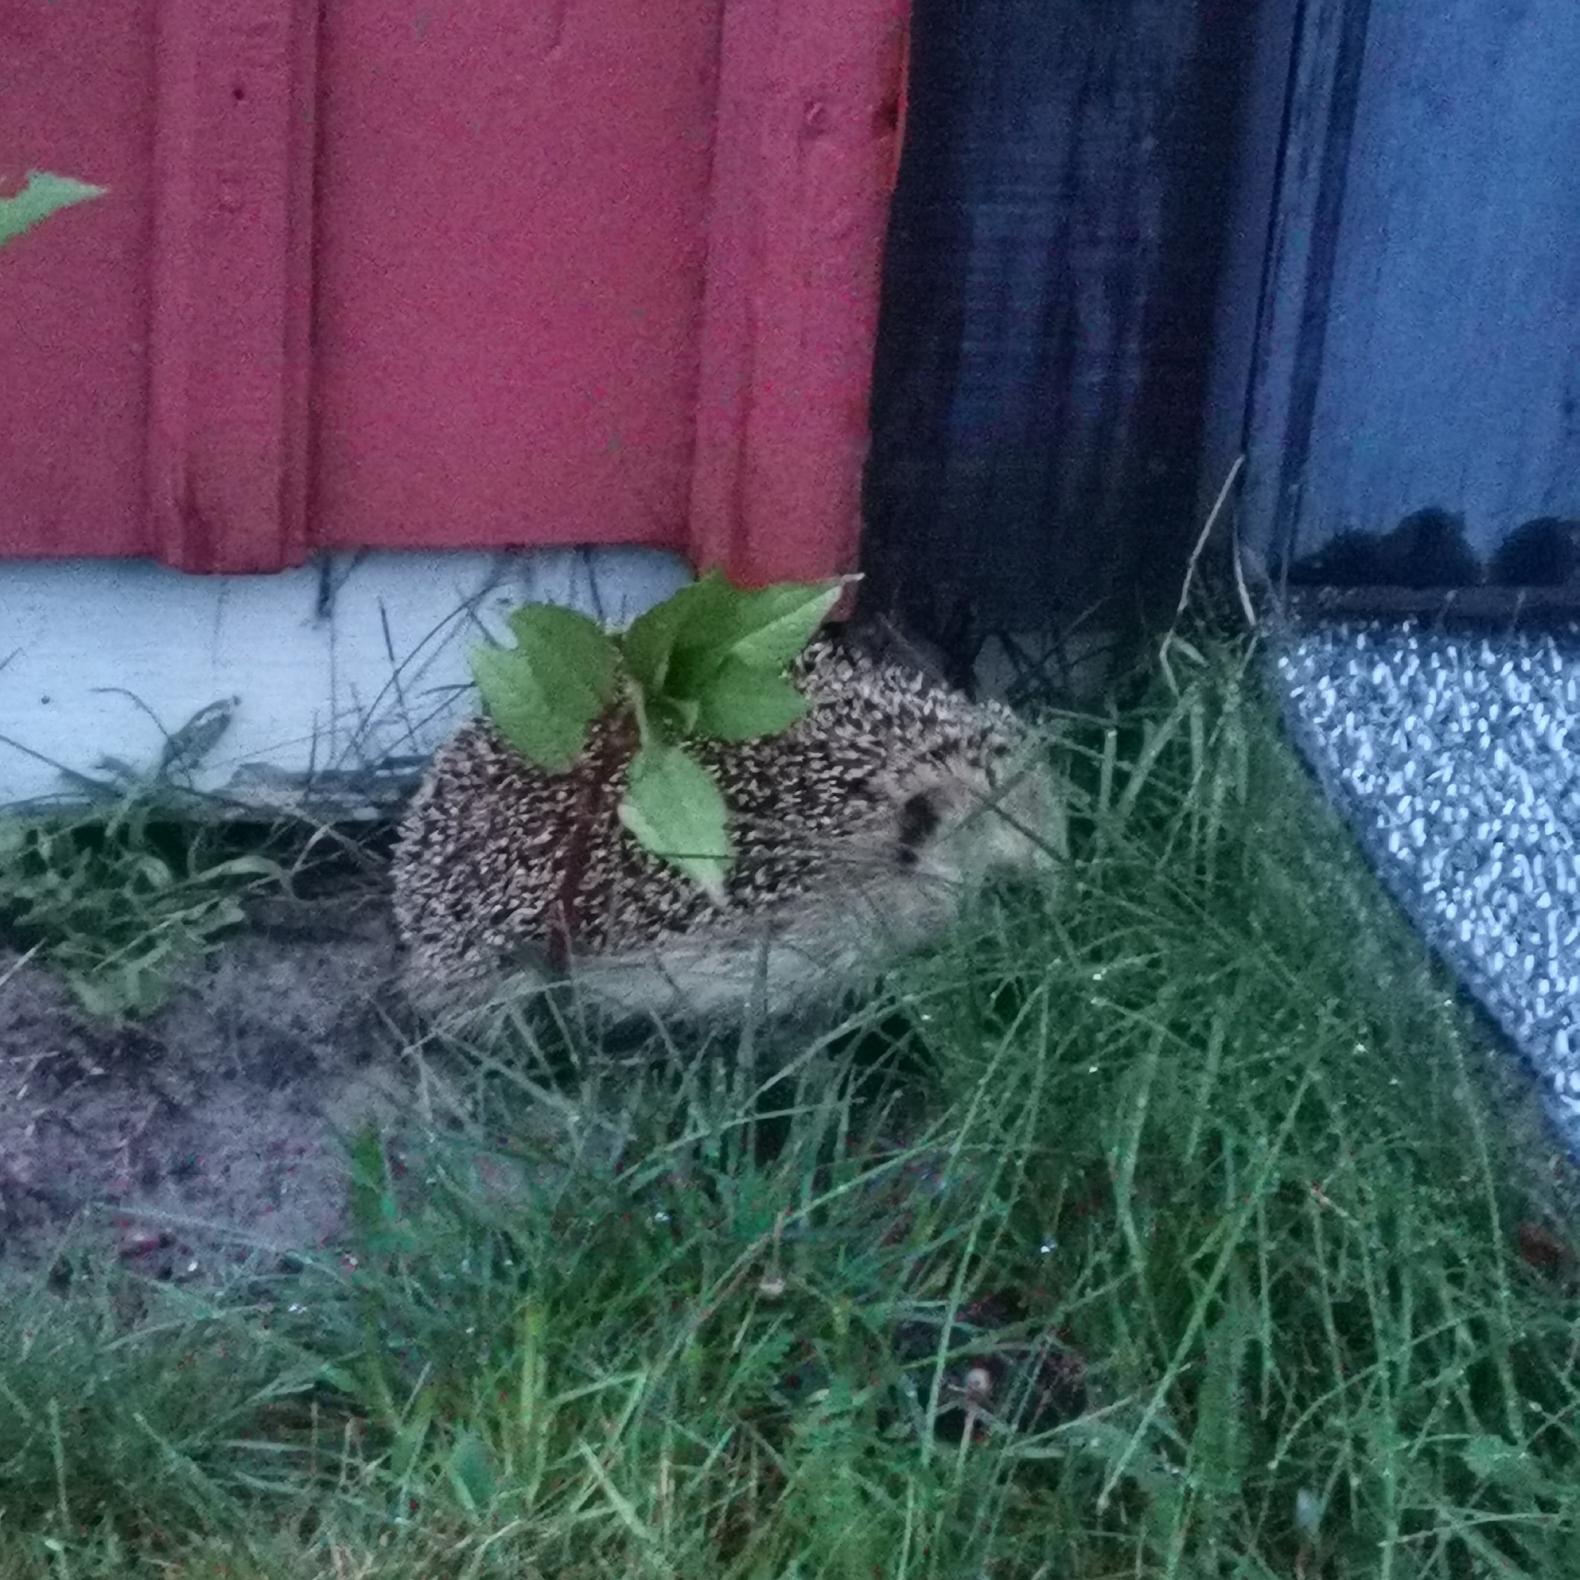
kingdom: Animalia
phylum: Chordata
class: Mammalia
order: Erinaceomorpha
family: Erinaceidae
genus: Erinaceus
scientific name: Erinaceus europaeus
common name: Pindsvin
